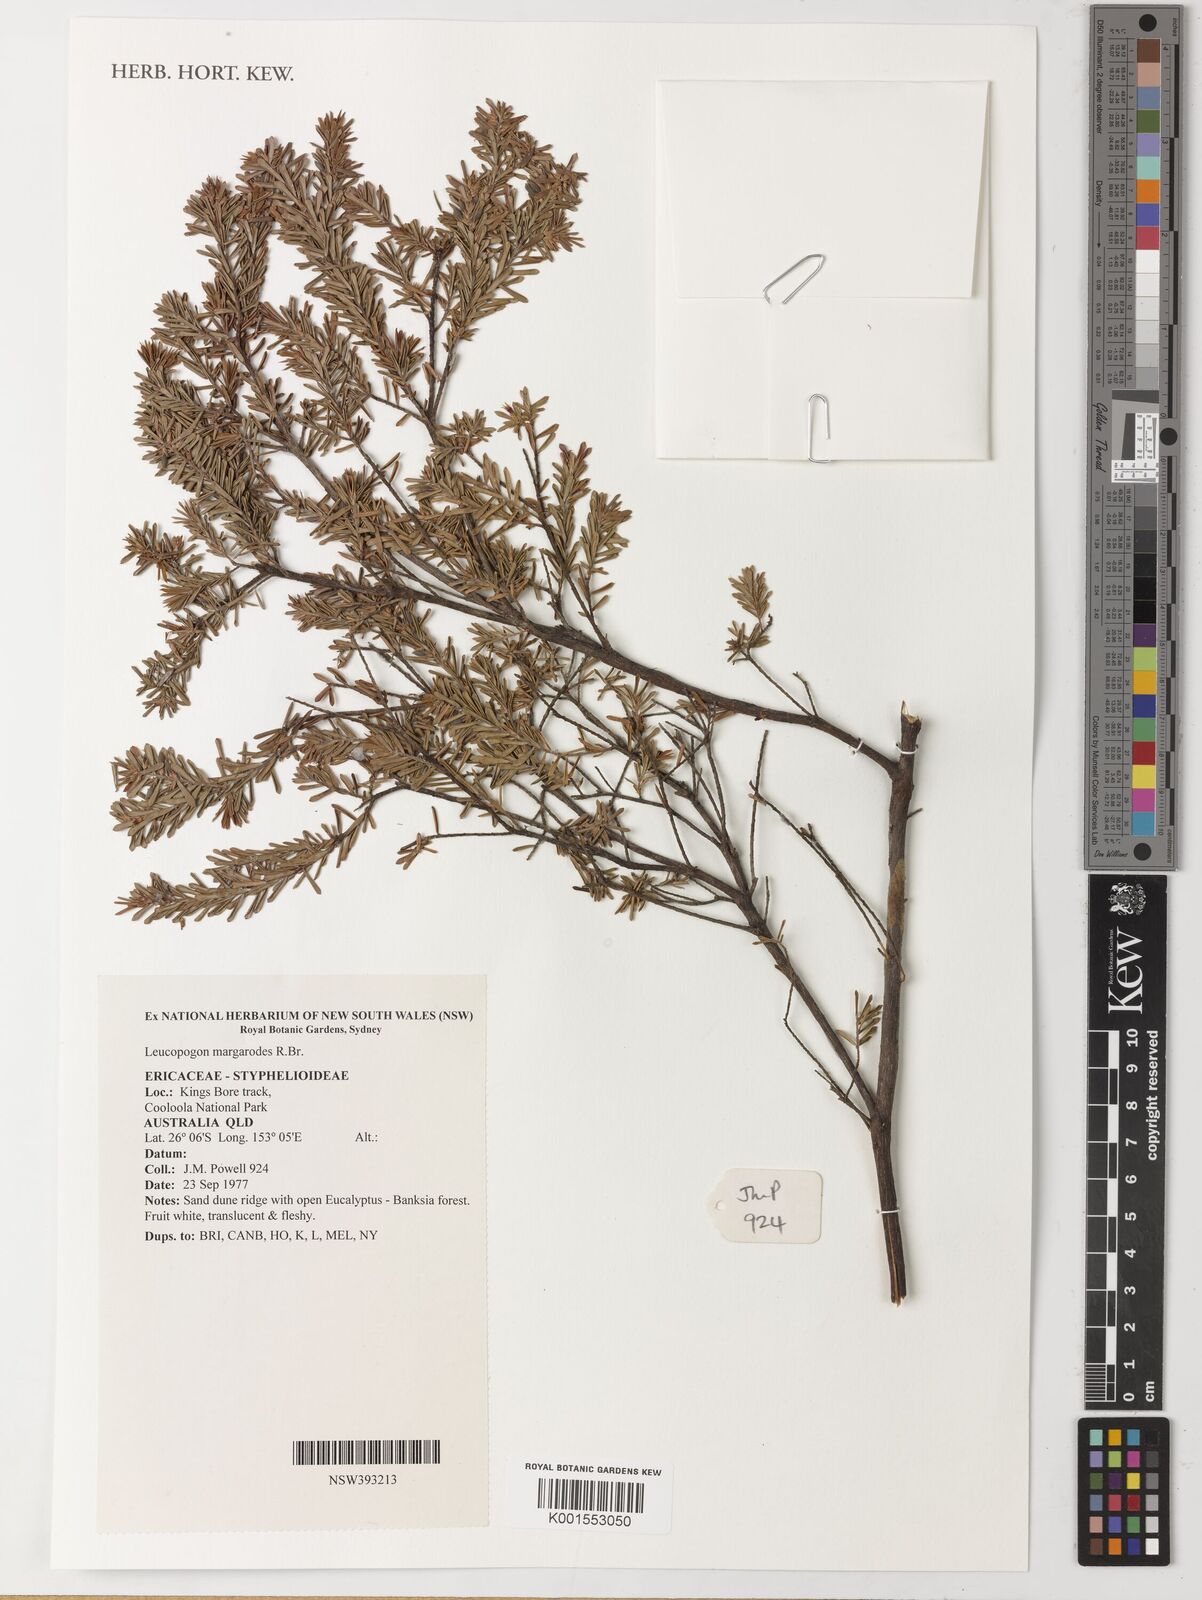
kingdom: Plantae
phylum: Tracheophyta
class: Magnoliopsida
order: Ericales
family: Ericaceae
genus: Styphelia
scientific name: Styphelia
